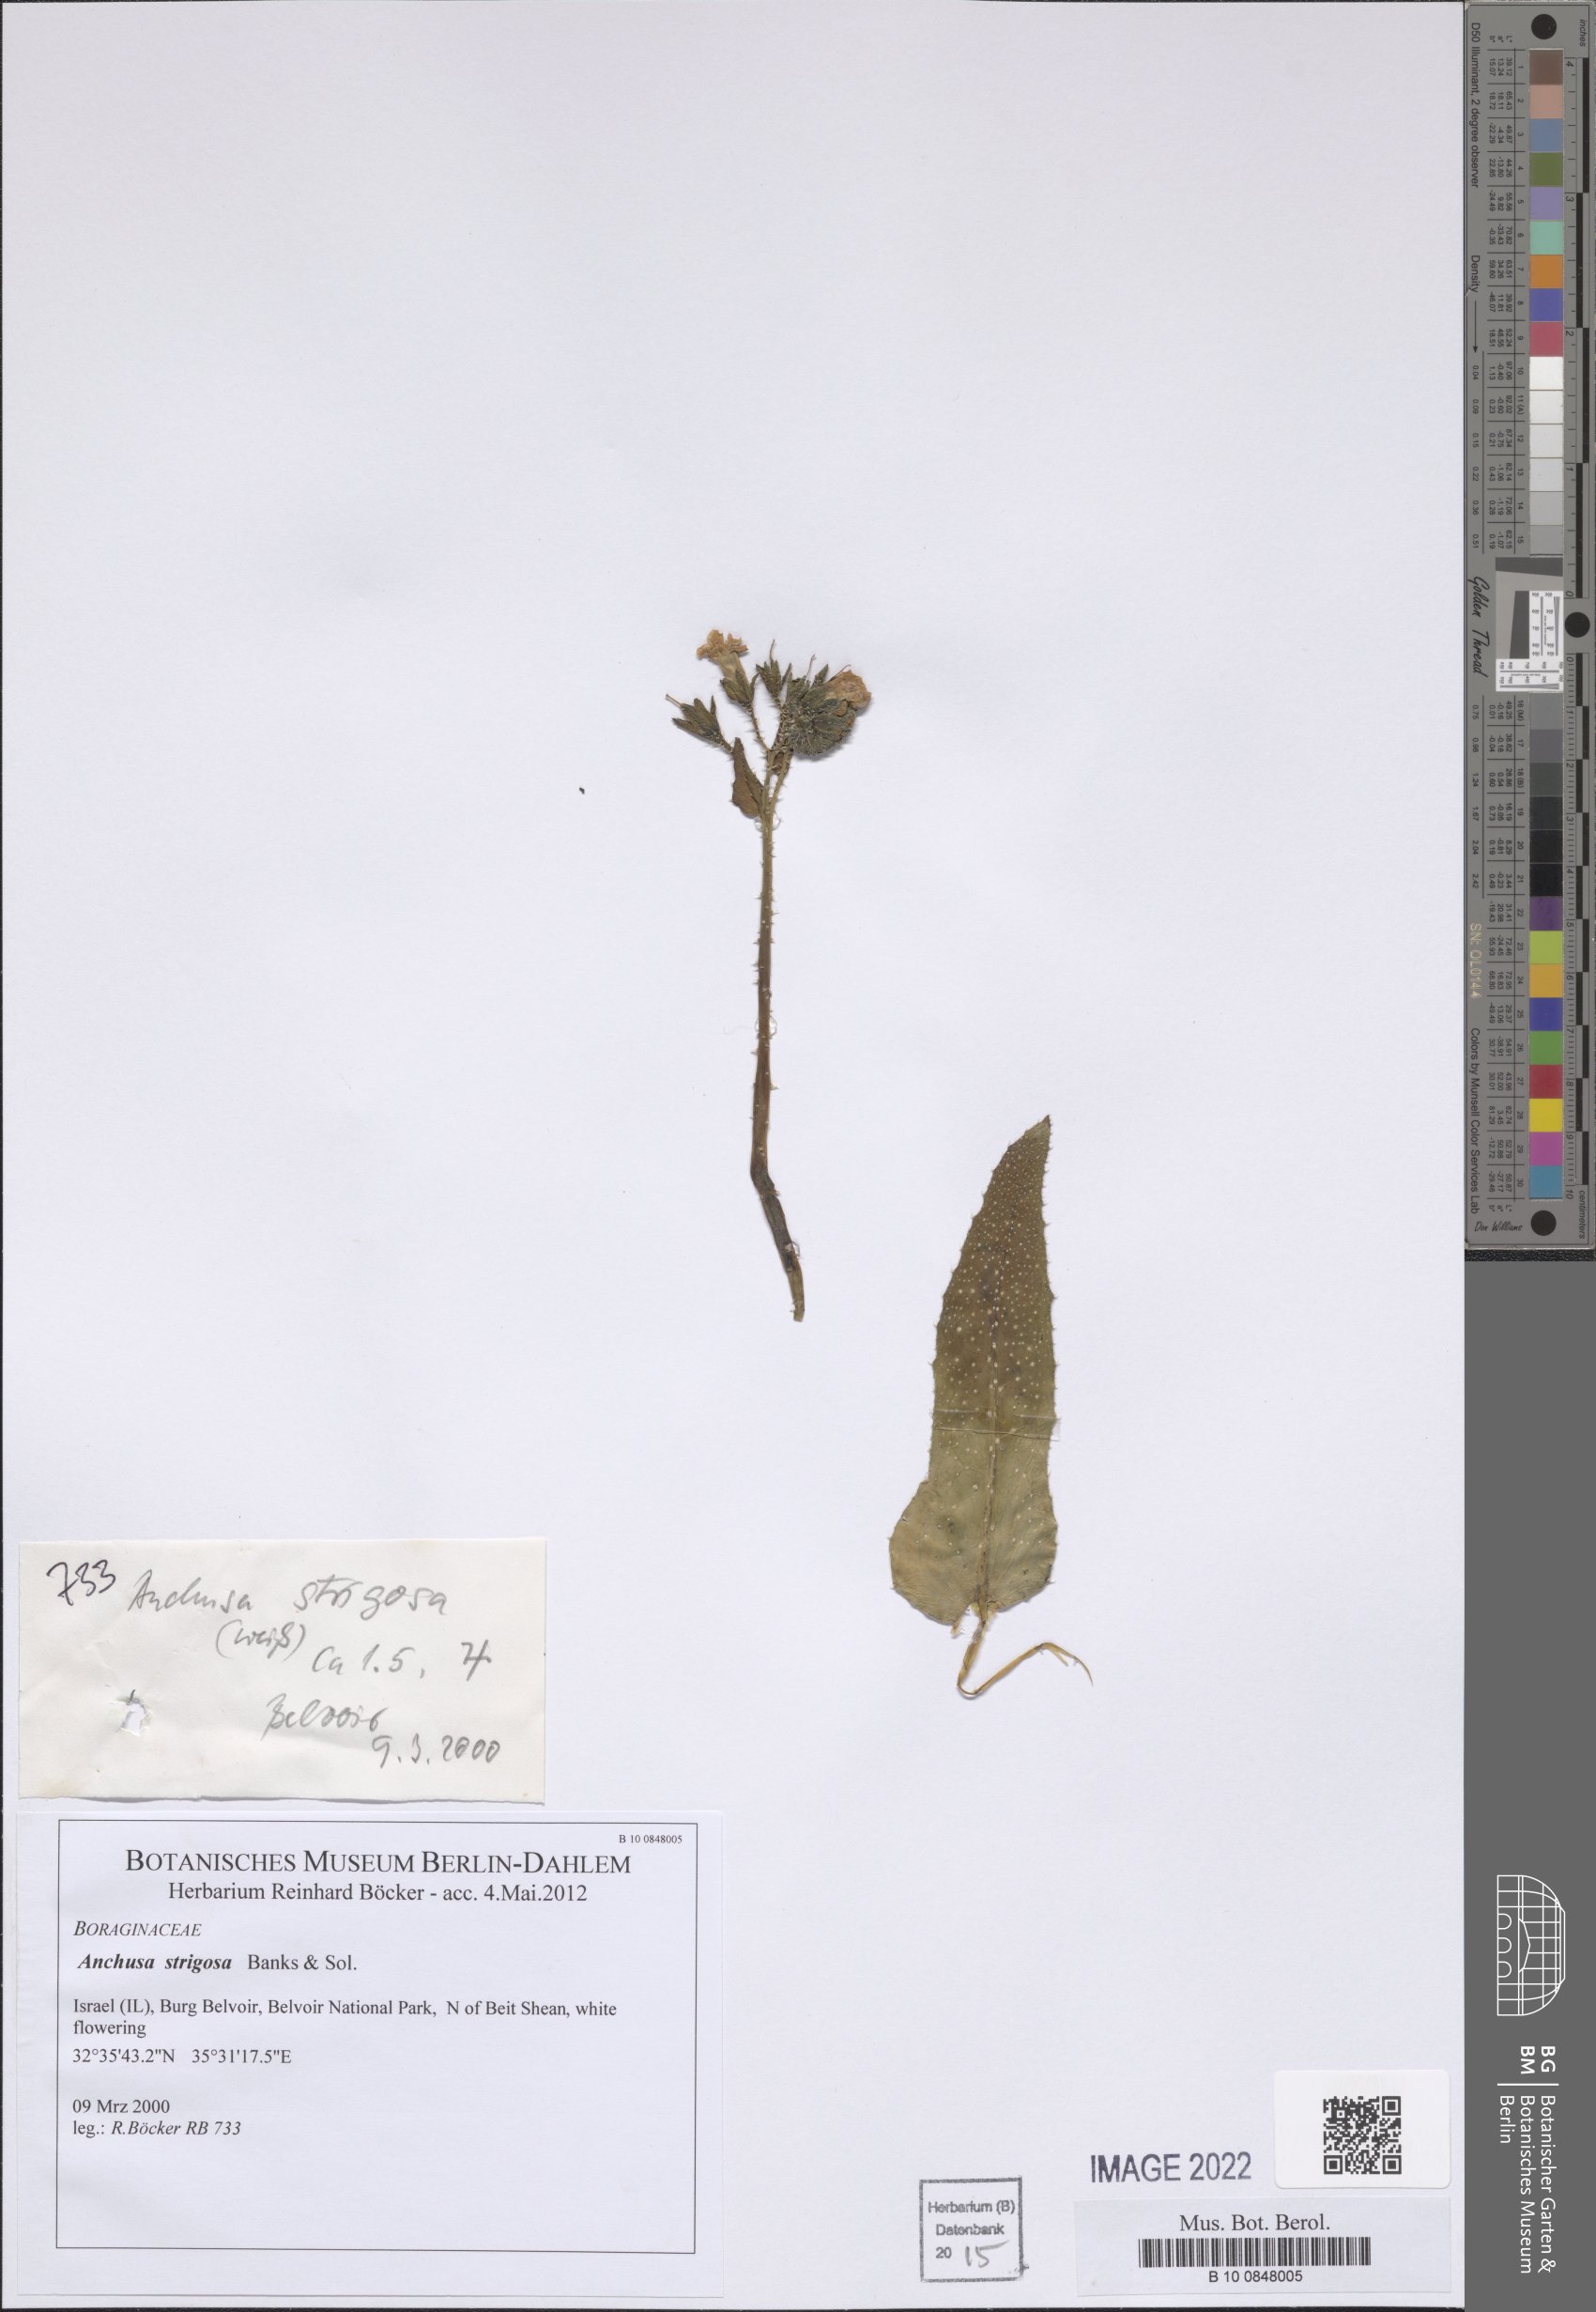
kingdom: Plantae
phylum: Tracheophyta
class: Magnoliopsida
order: Boraginales
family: Boraginaceae
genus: Anchusa
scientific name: Anchusa strigosa
